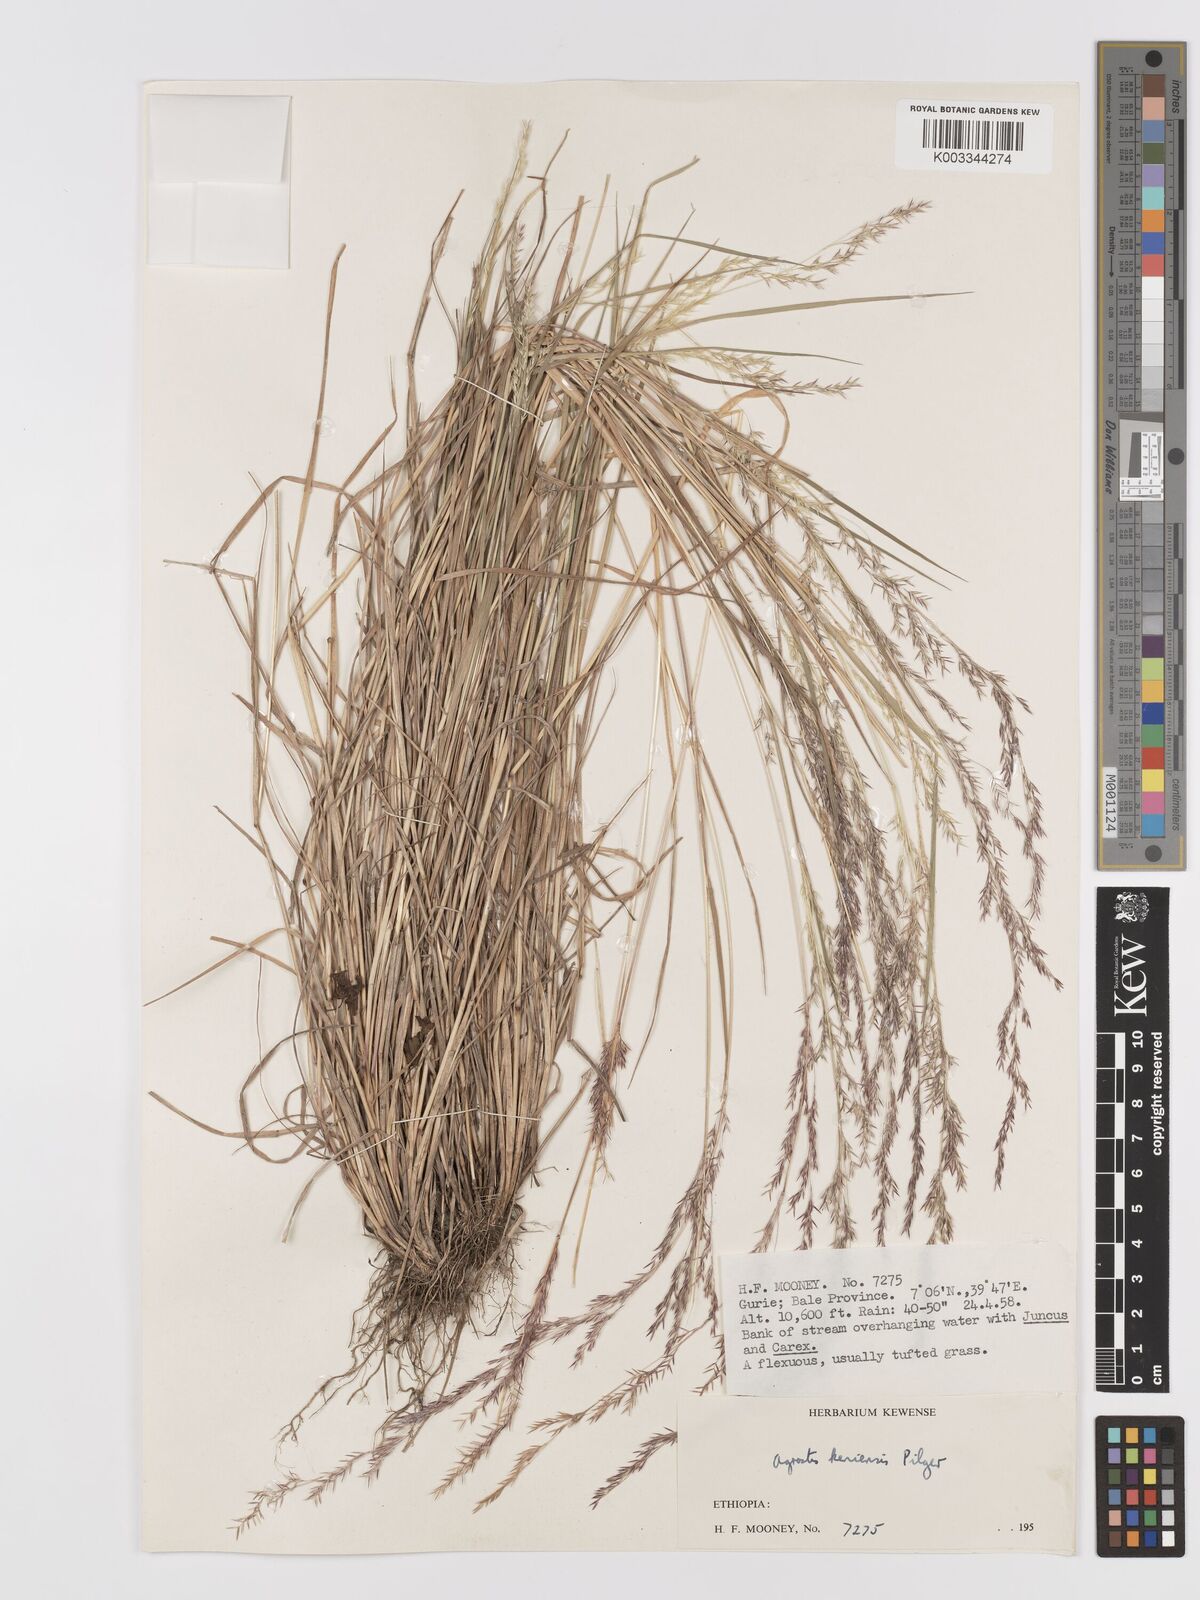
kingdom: Plantae
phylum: Tracheophyta
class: Liliopsida
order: Poales
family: Poaceae
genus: Agrostis
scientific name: Agrostis keniensis
